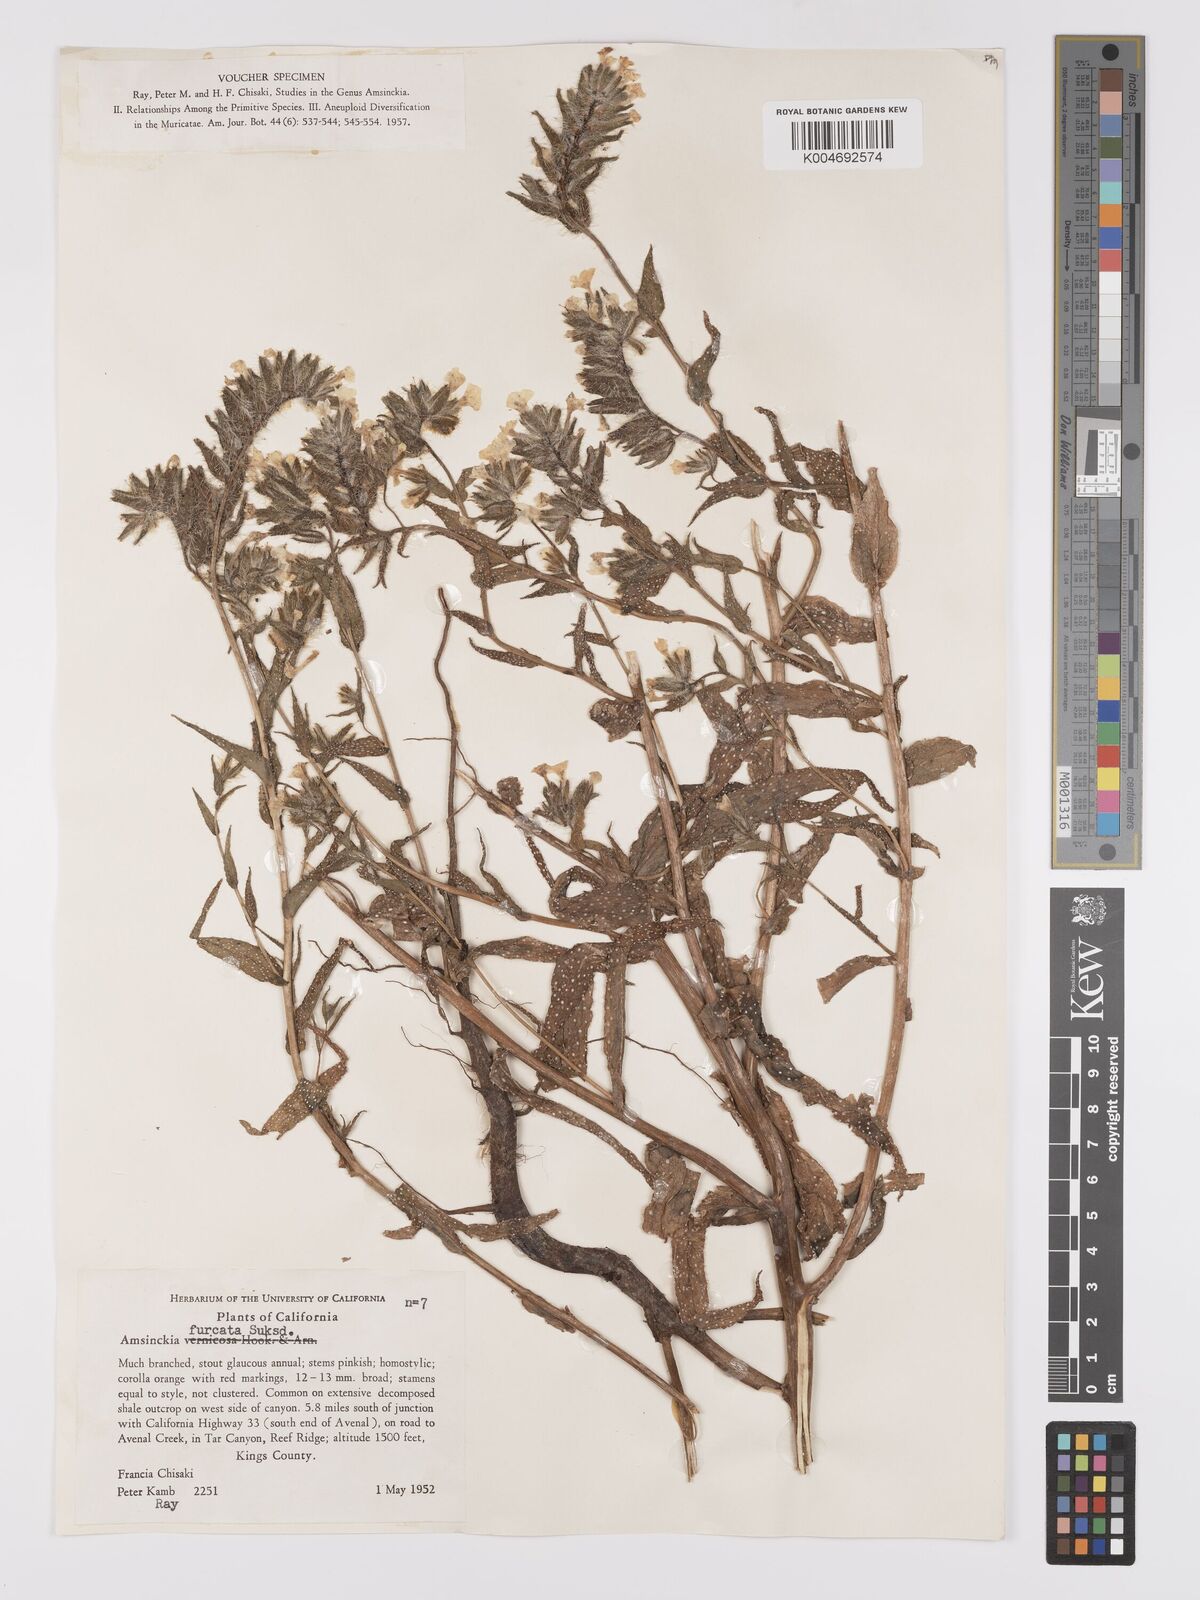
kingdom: Plantae
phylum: Tracheophyta
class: Magnoliopsida
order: Boraginales
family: Boraginaceae
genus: Amsinckia
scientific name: Amsinckia vernicosa
